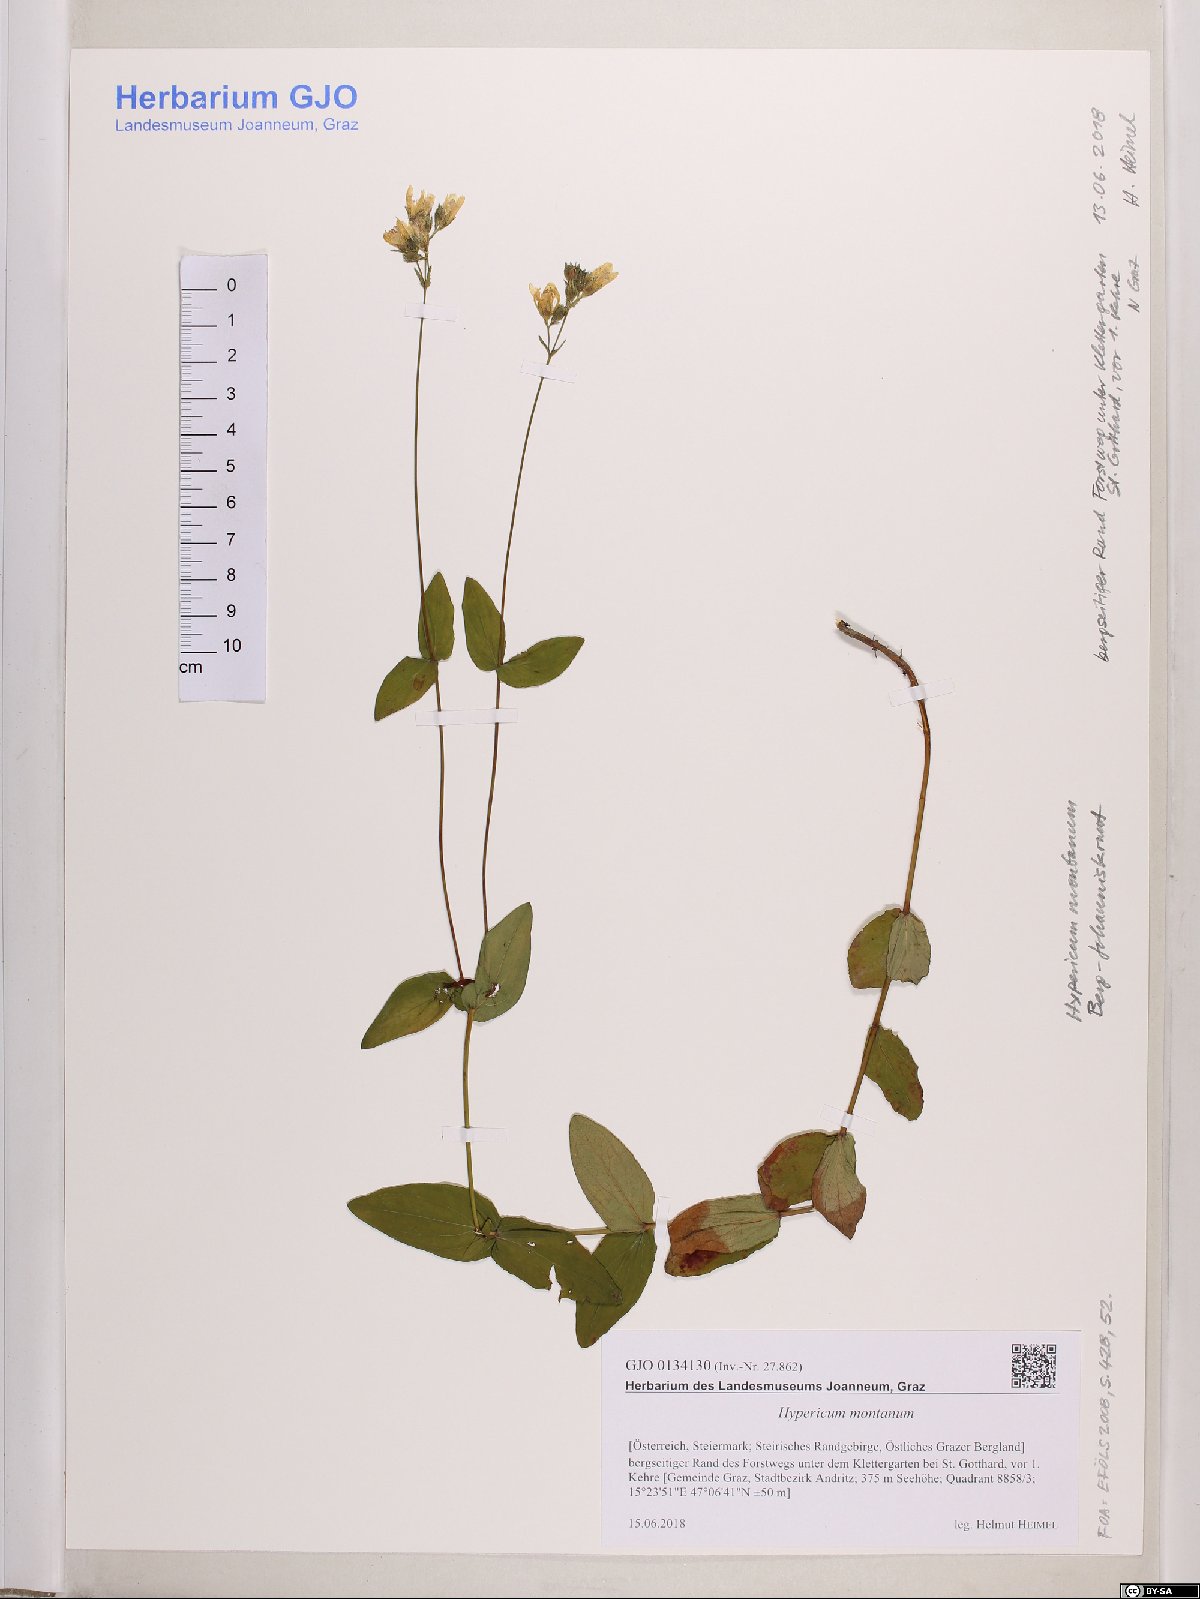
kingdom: Plantae
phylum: Tracheophyta
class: Magnoliopsida
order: Malpighiales
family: Hypericaceae
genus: Hypericum
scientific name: Hypericum montanum
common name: Pale st. john's-wort
